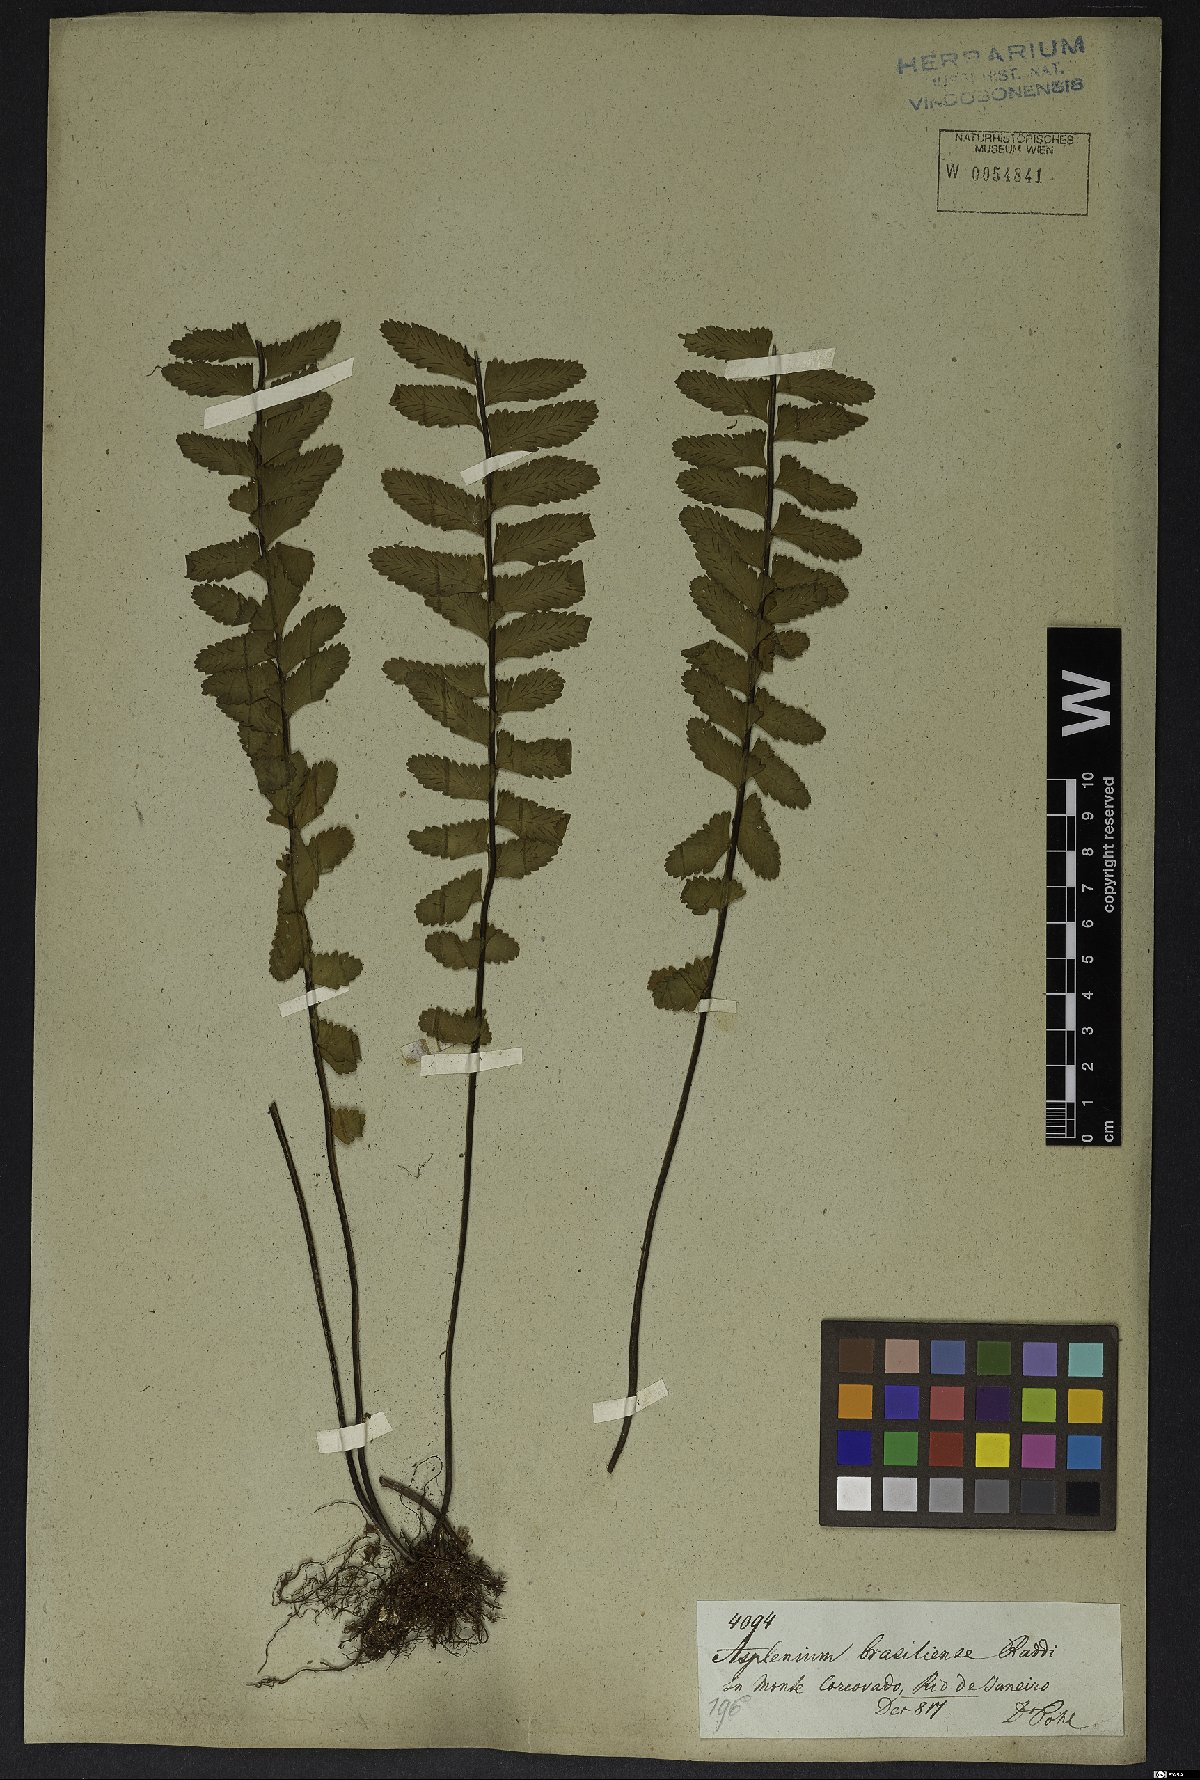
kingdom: Plantae
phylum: Tracheophyta
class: Polypodiopsida
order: Polypodiales
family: Aspleniaceae
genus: Asplenium
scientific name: Asplenium lunulatum
